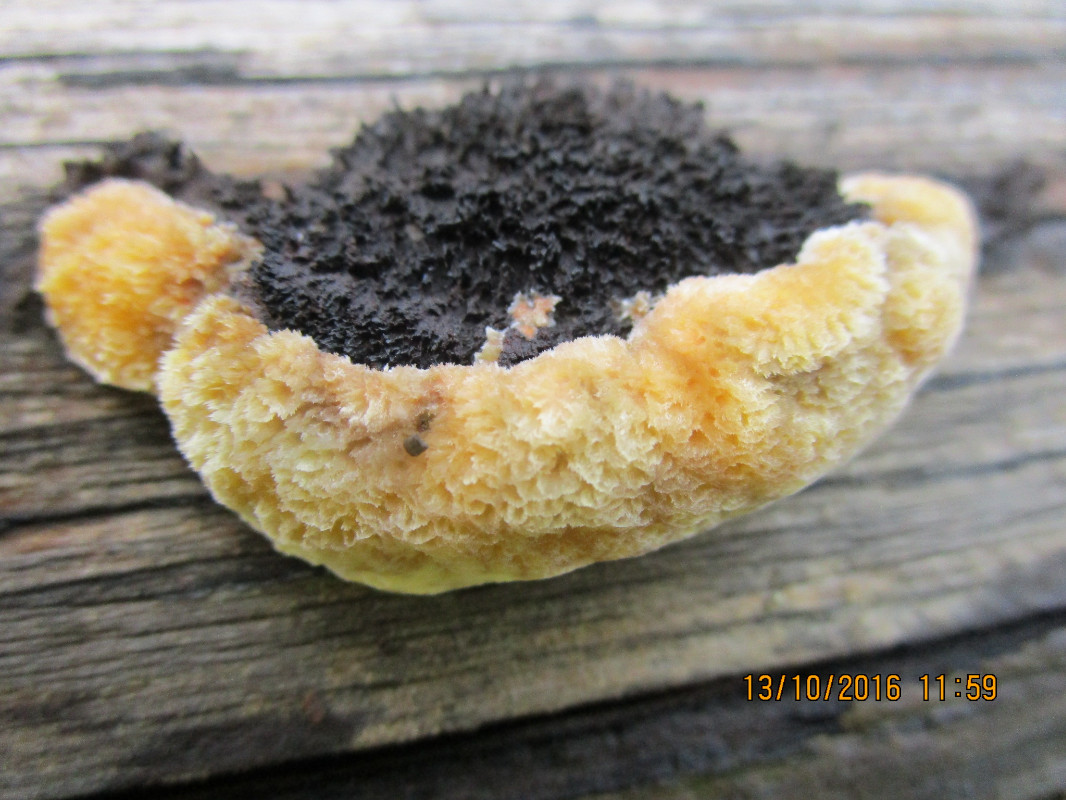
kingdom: Fungi
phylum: Basidiomycota
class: Agaricomycetes
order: Gloeophyllales
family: Gloeophyllaceae
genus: Gloeophyllum
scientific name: Gloeophyllum odoratum
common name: duftende korkhat
